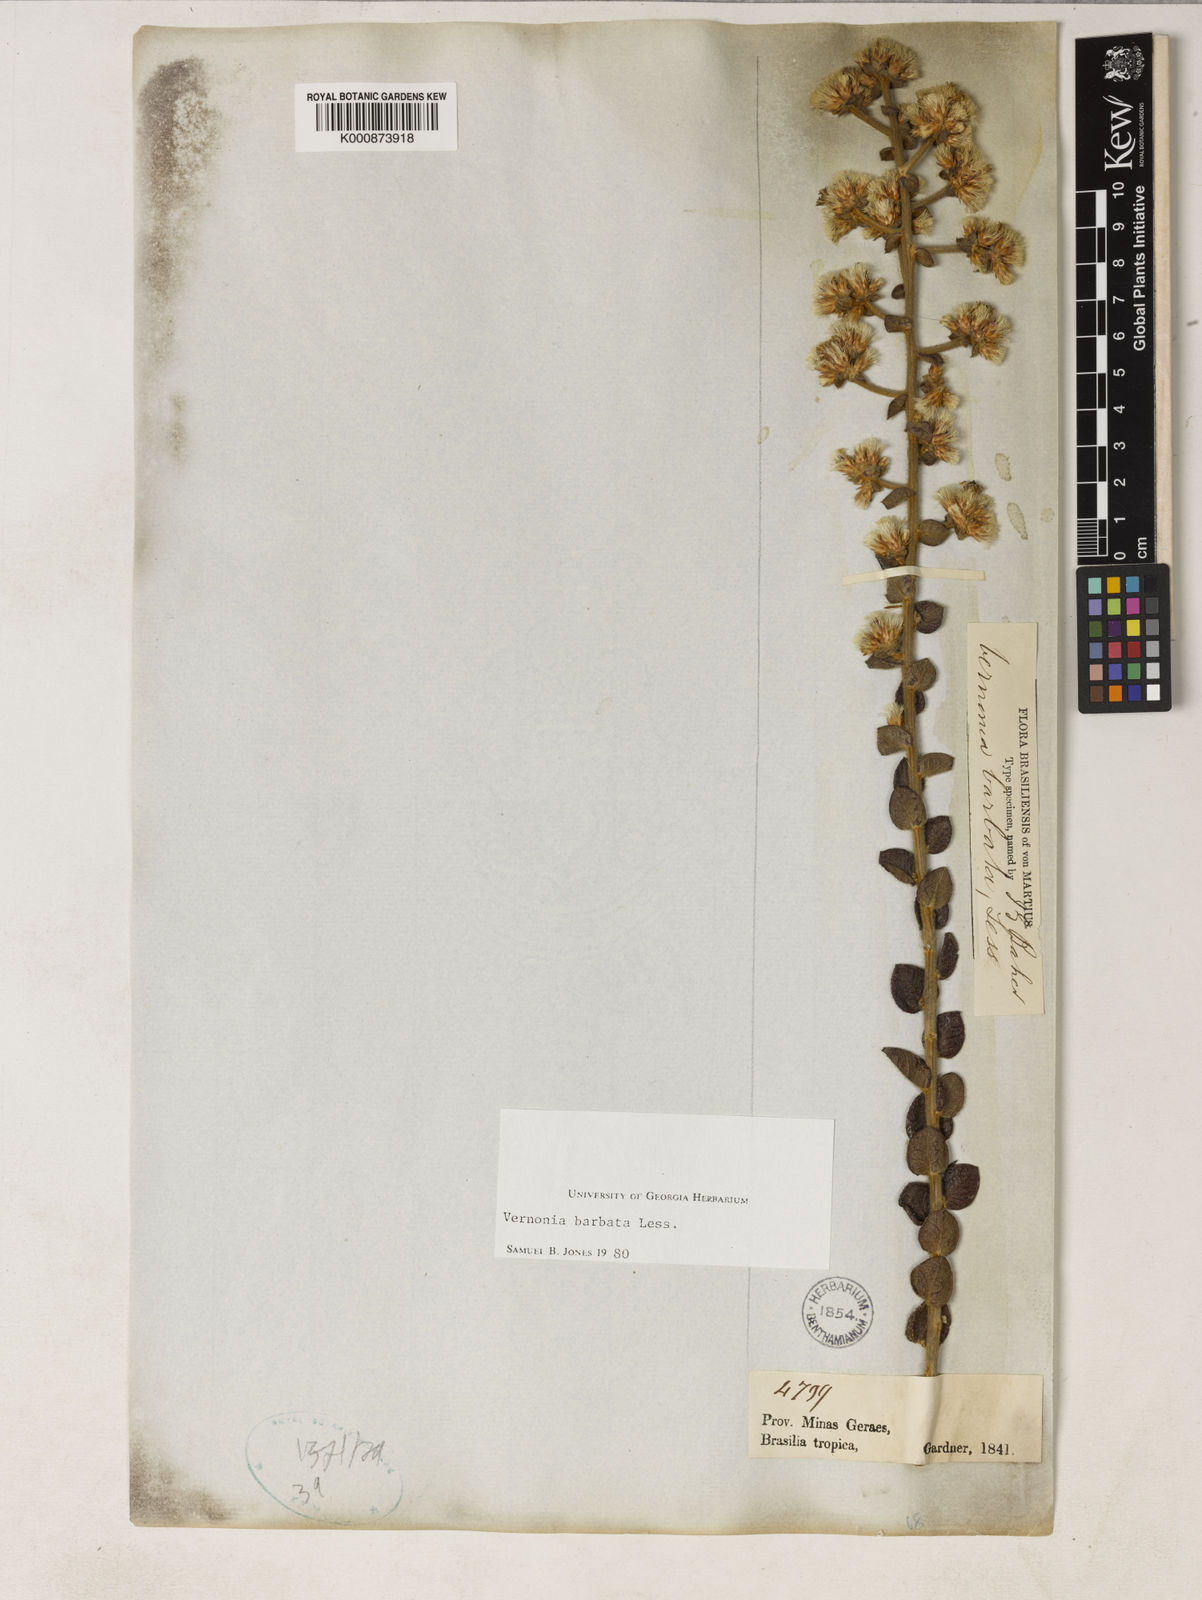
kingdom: Plantae
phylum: Tracheophyta
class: Magnoliopsida
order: Asterales
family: Asteraceae
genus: Lepidaploa
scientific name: Lepidaploa barbata
